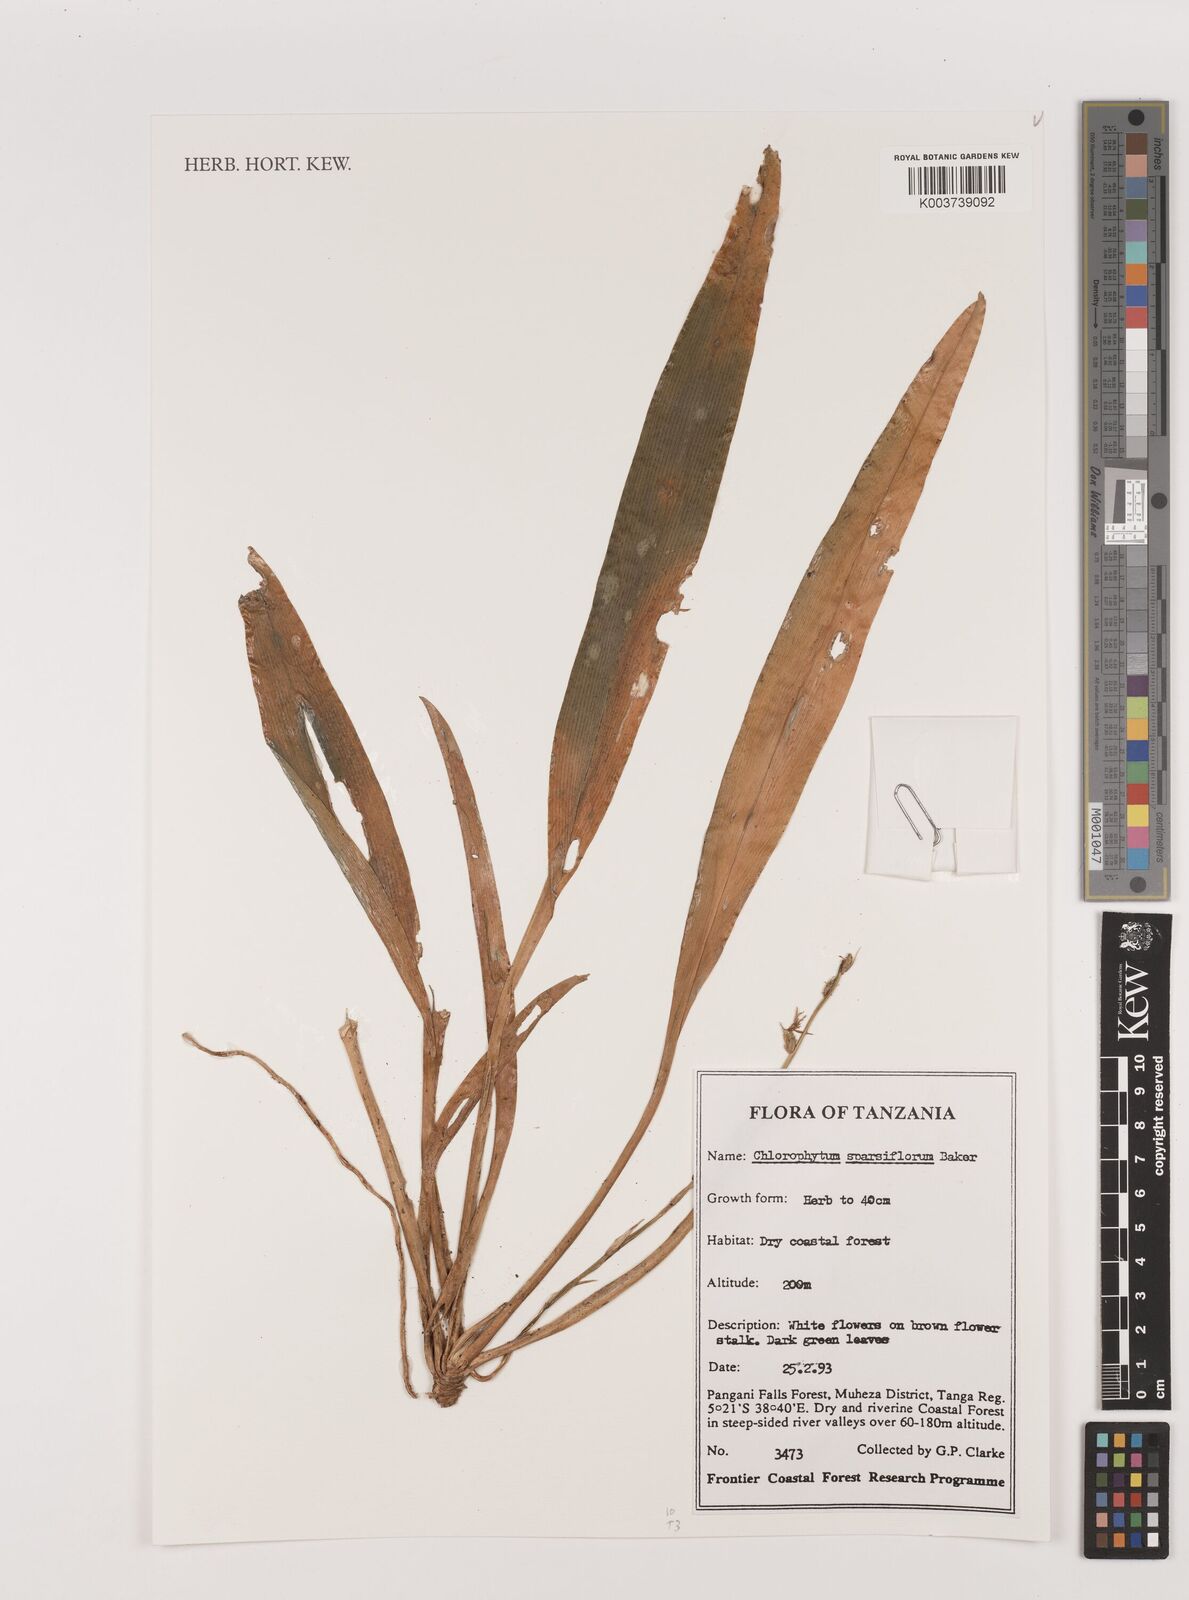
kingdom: Plantae
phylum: Tracheophyta
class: Liliopsida
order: Asparagales
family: Asparagaceae
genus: Chlorophytum
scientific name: Chlorophytum sparsiflorum
